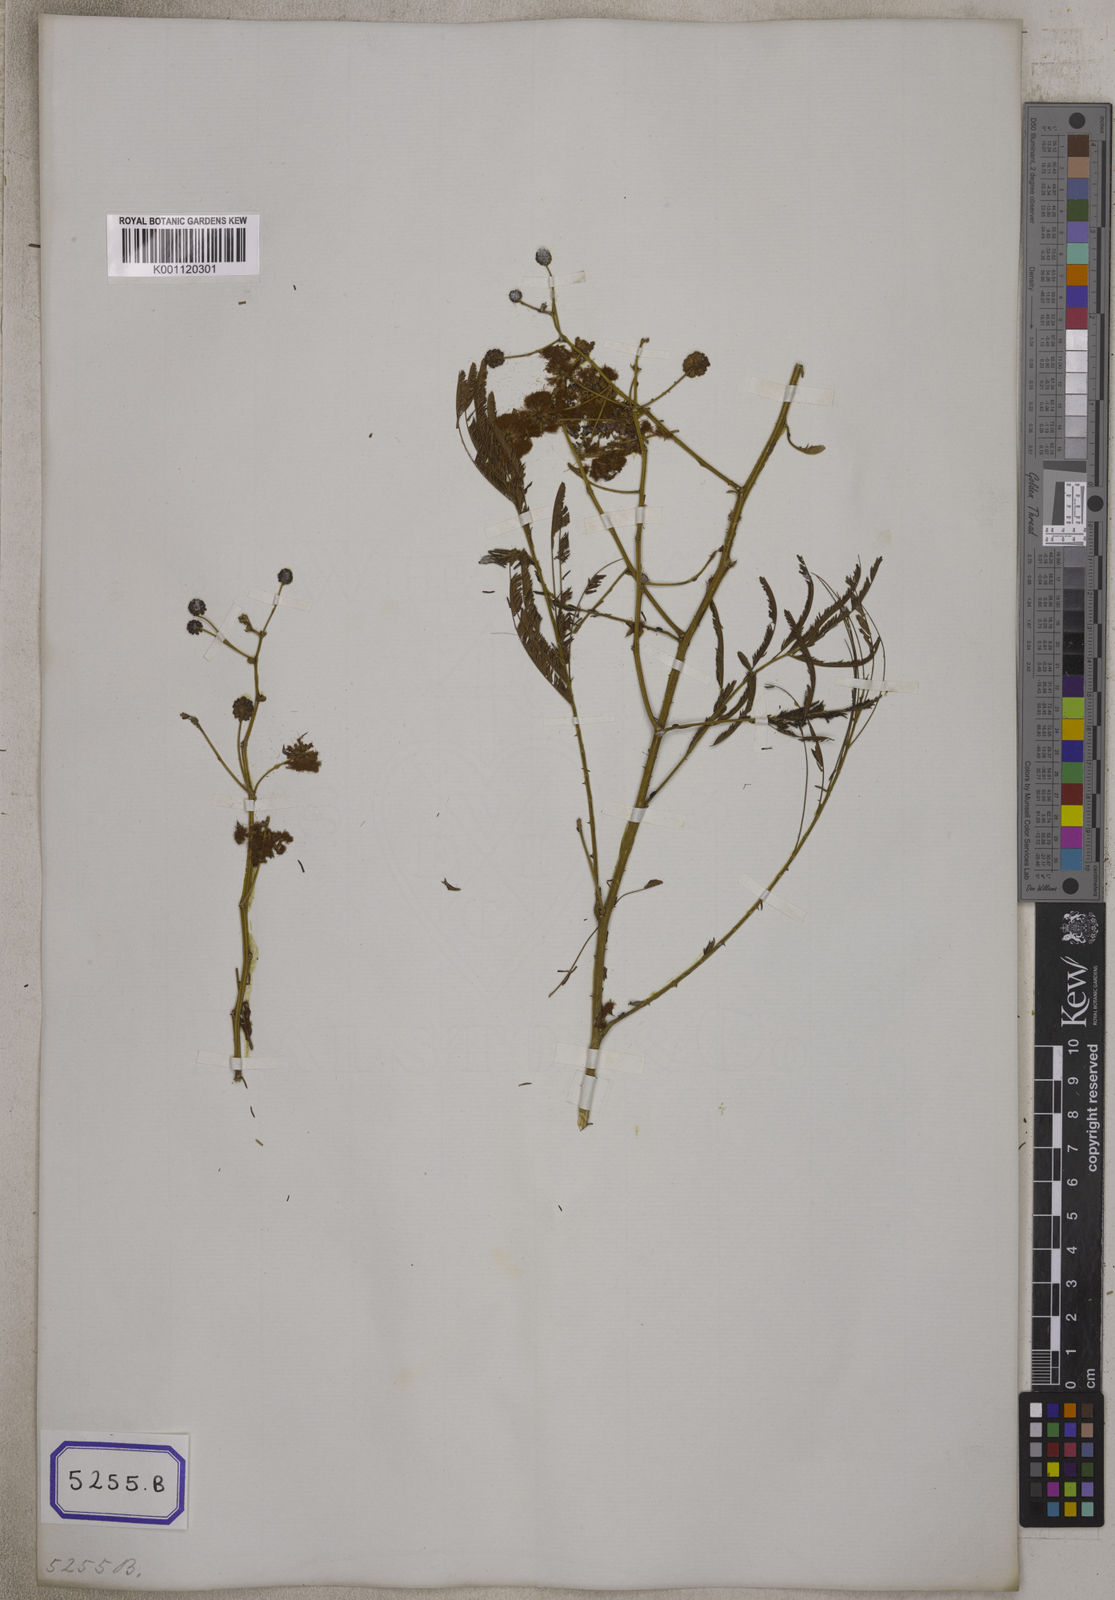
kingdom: Plantae
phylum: Tracheophyta
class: Magnoliopsida
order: Fabales
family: Fabaceae
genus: Senegalia
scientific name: Senegalia pluricapitata
